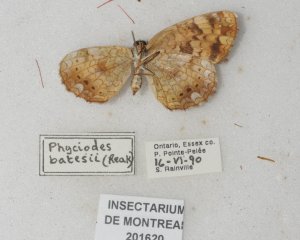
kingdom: Animalia
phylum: Arthropoda
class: Insecta
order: Lepidoptera
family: Nymphalidae
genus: Phyciodes
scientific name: Phyciodes tharos
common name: Northern Crescent
